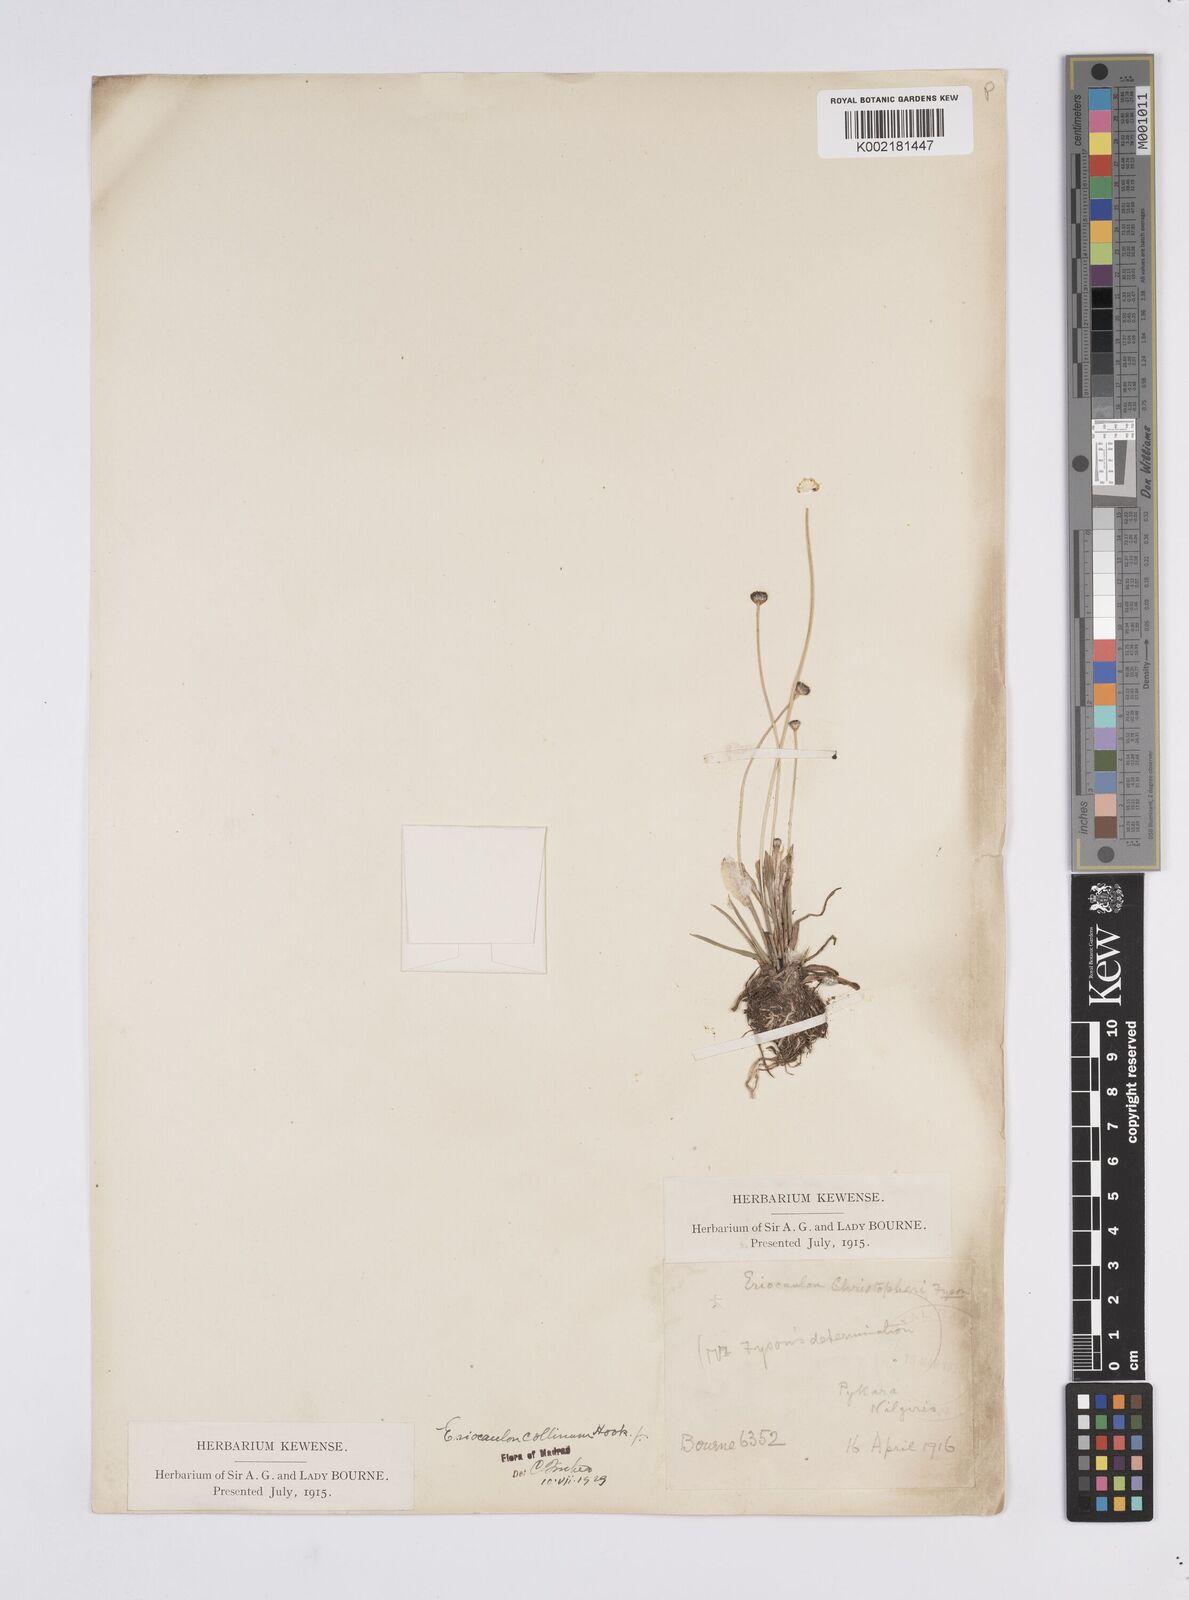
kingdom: Plantae
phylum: Tracheophyta
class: Liliopsida
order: Poales
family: Eriocaulaceae
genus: Eriocaulon
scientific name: Eriocaulon odoratum
